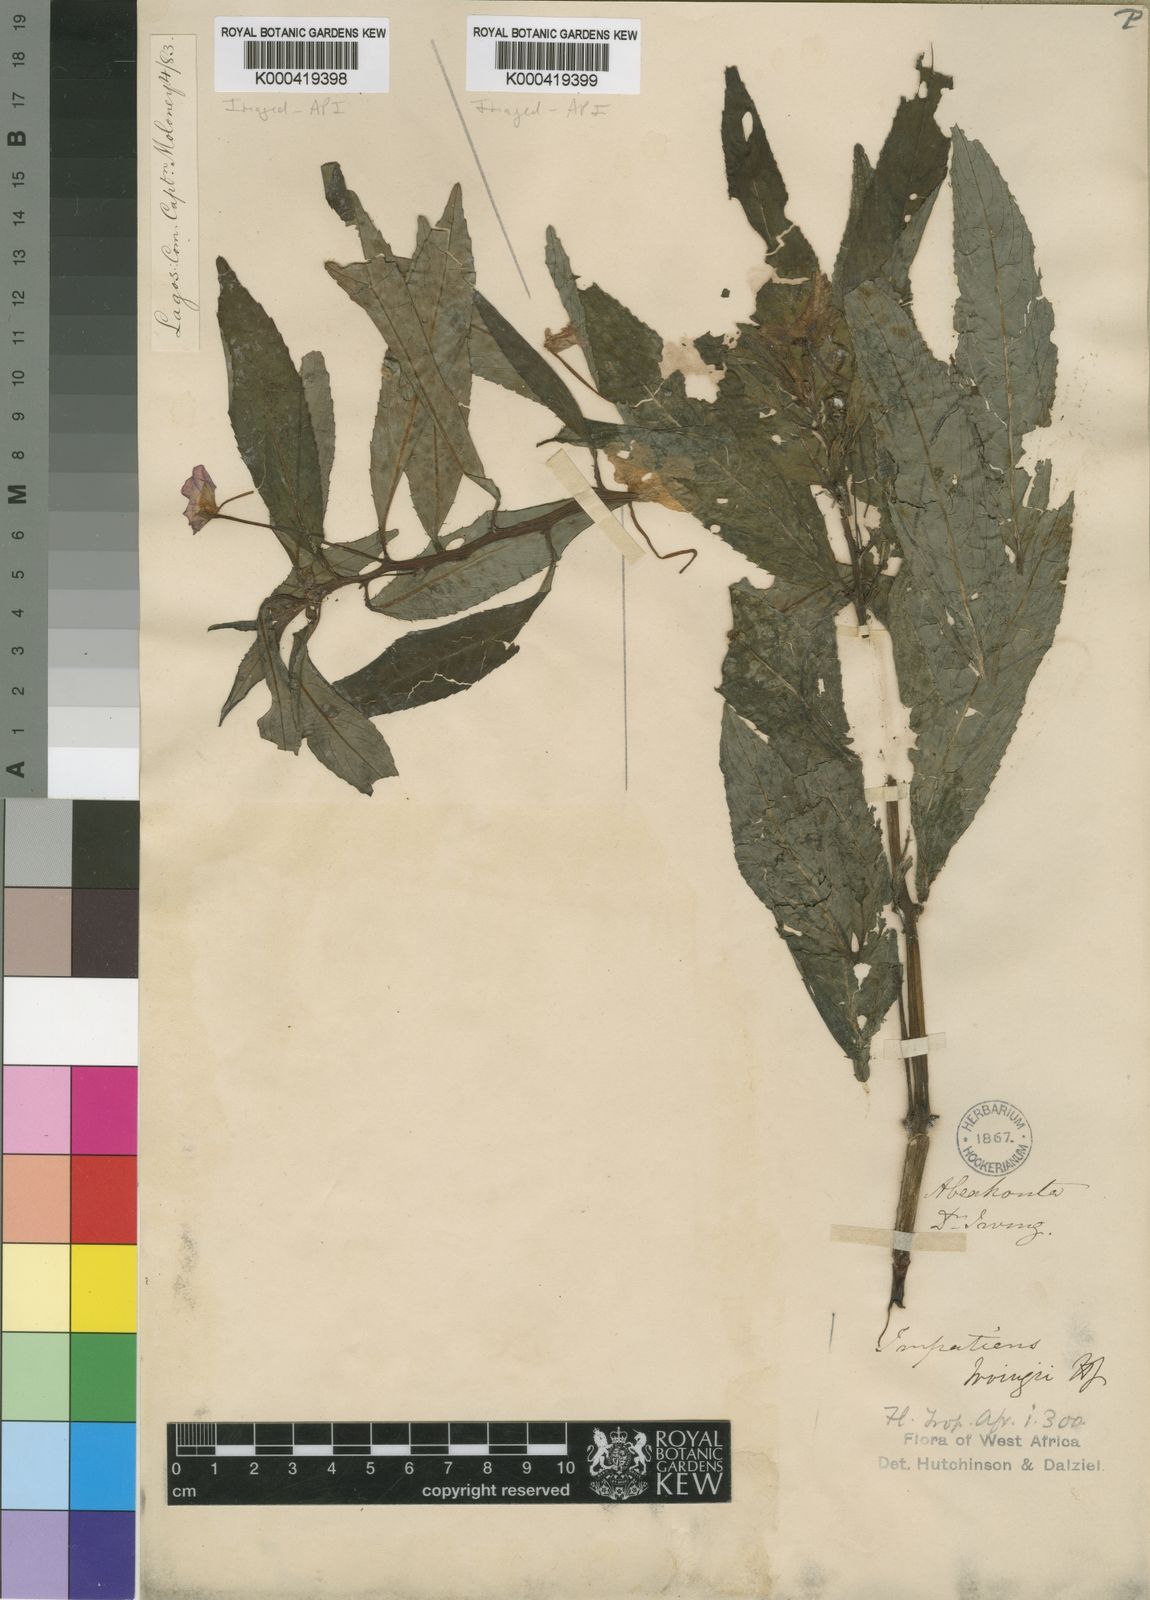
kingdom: Plantae
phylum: Tracheophyta
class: Magnoliopsida
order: Ericales
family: Balsaminaceae
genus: Impatiens
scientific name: Impatiens irvingii
